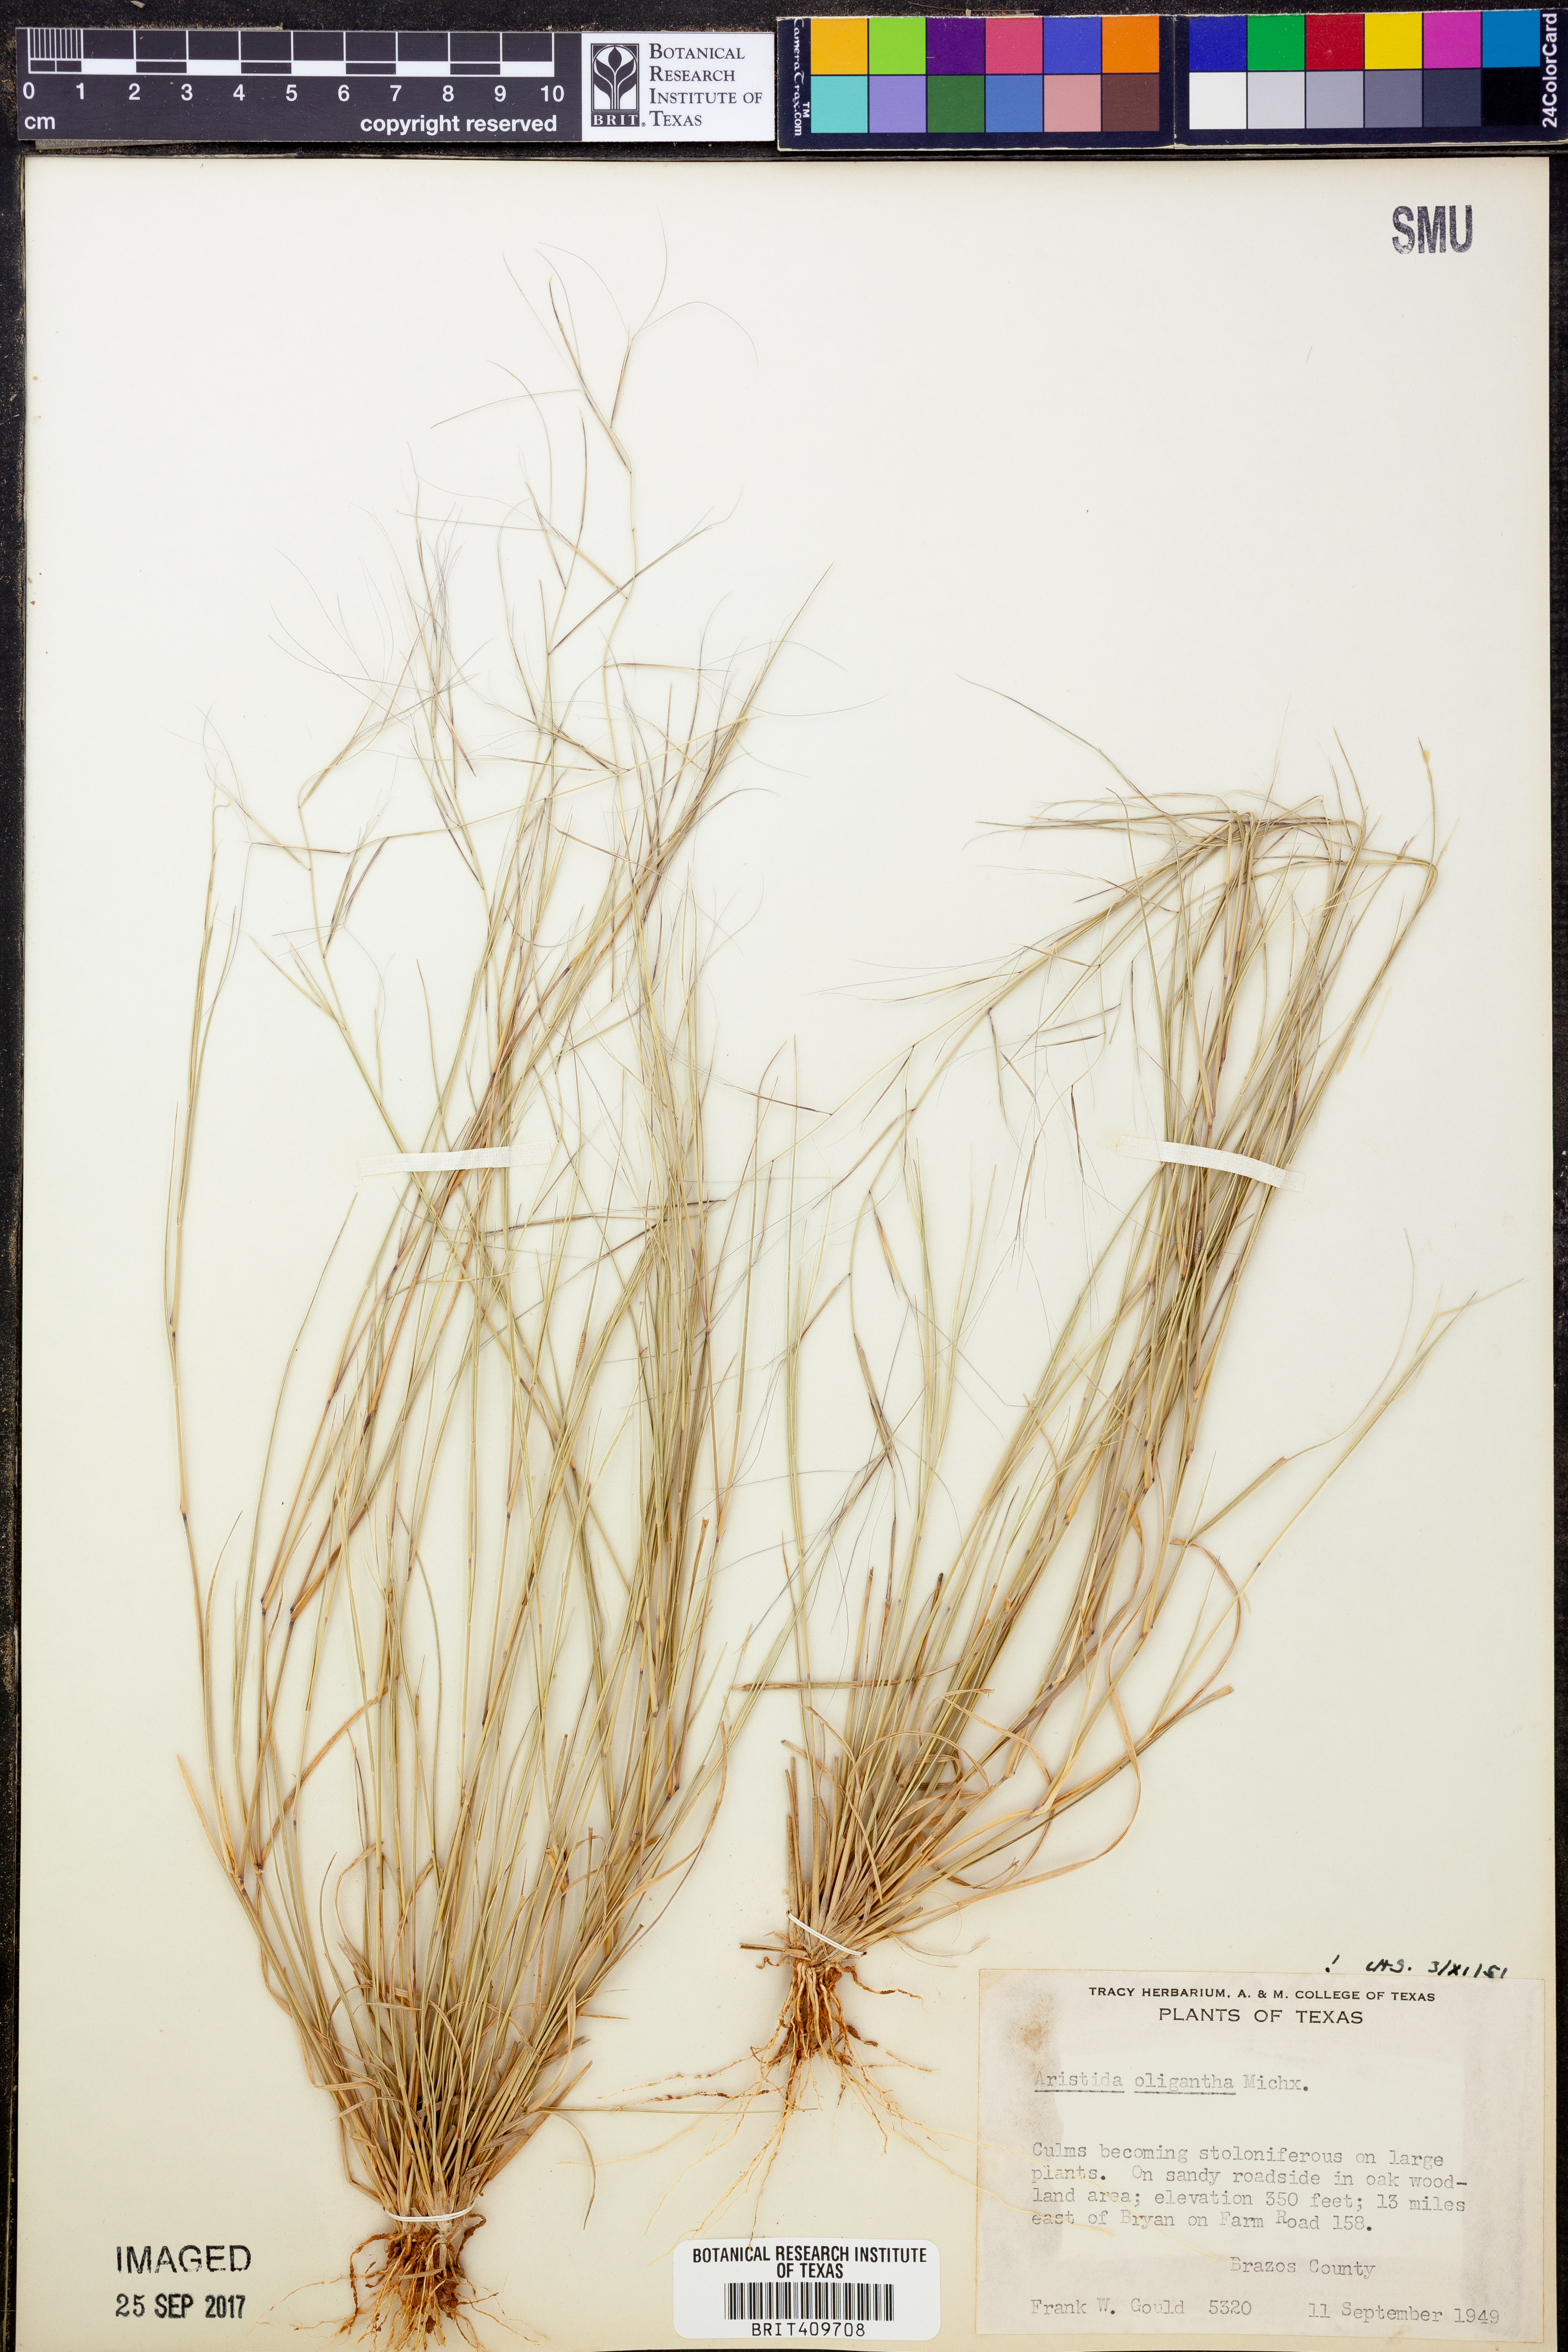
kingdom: Plantae
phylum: Tracheophyta
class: Liliopsida
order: Poales
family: Poaceae
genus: Aristida
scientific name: Aristida oligantha
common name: Few-flowered aristida
